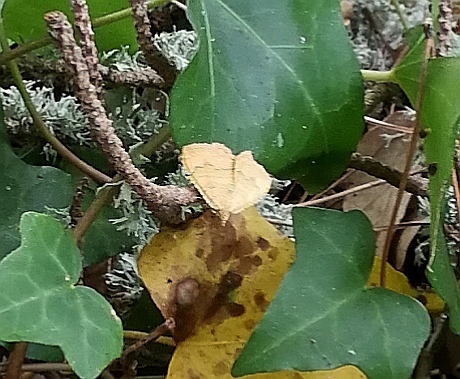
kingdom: Animalia
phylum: Arthropoda
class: Insecta
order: Lepidoptera
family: Geometridae
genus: Camptogramma
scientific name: Camptogramma bilineata
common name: Yellow shell
